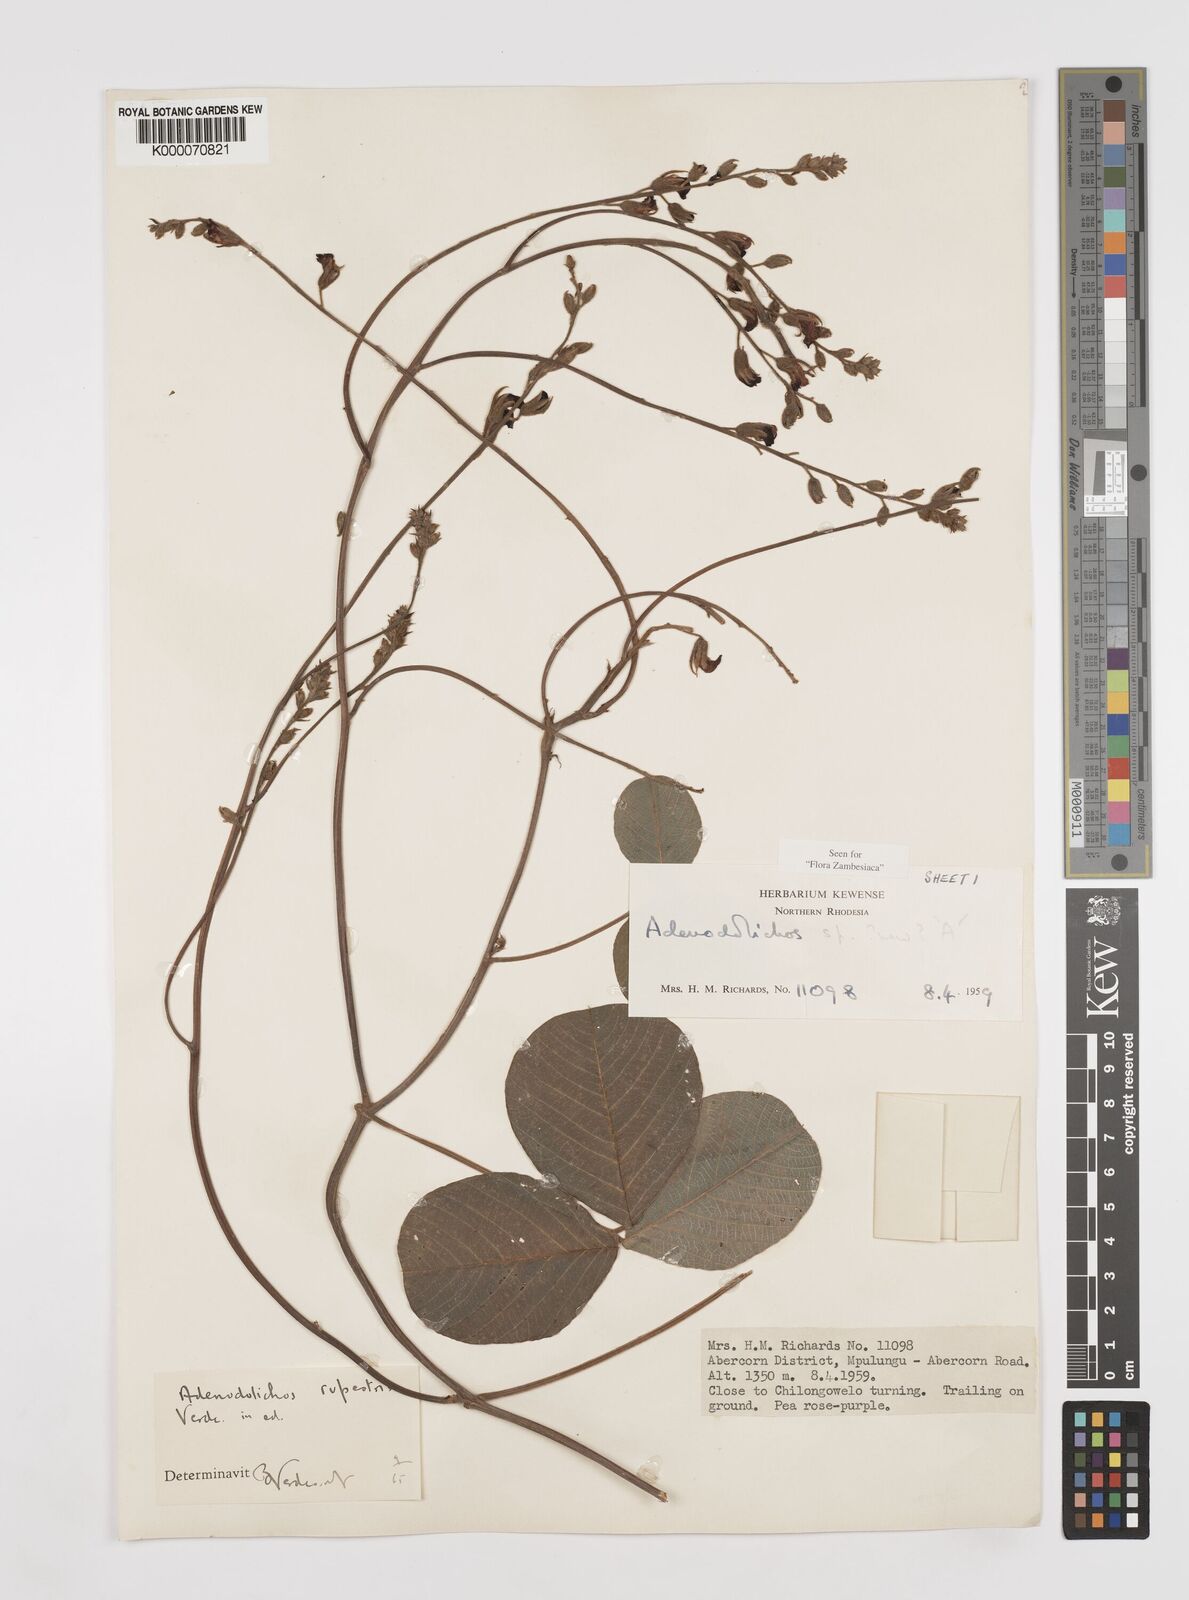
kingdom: Plantae
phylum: Tracheophyta
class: Magnoliopsida
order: Fabales
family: Fabaceae
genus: Adenodolichos
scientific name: Adenodolichos rupestris
